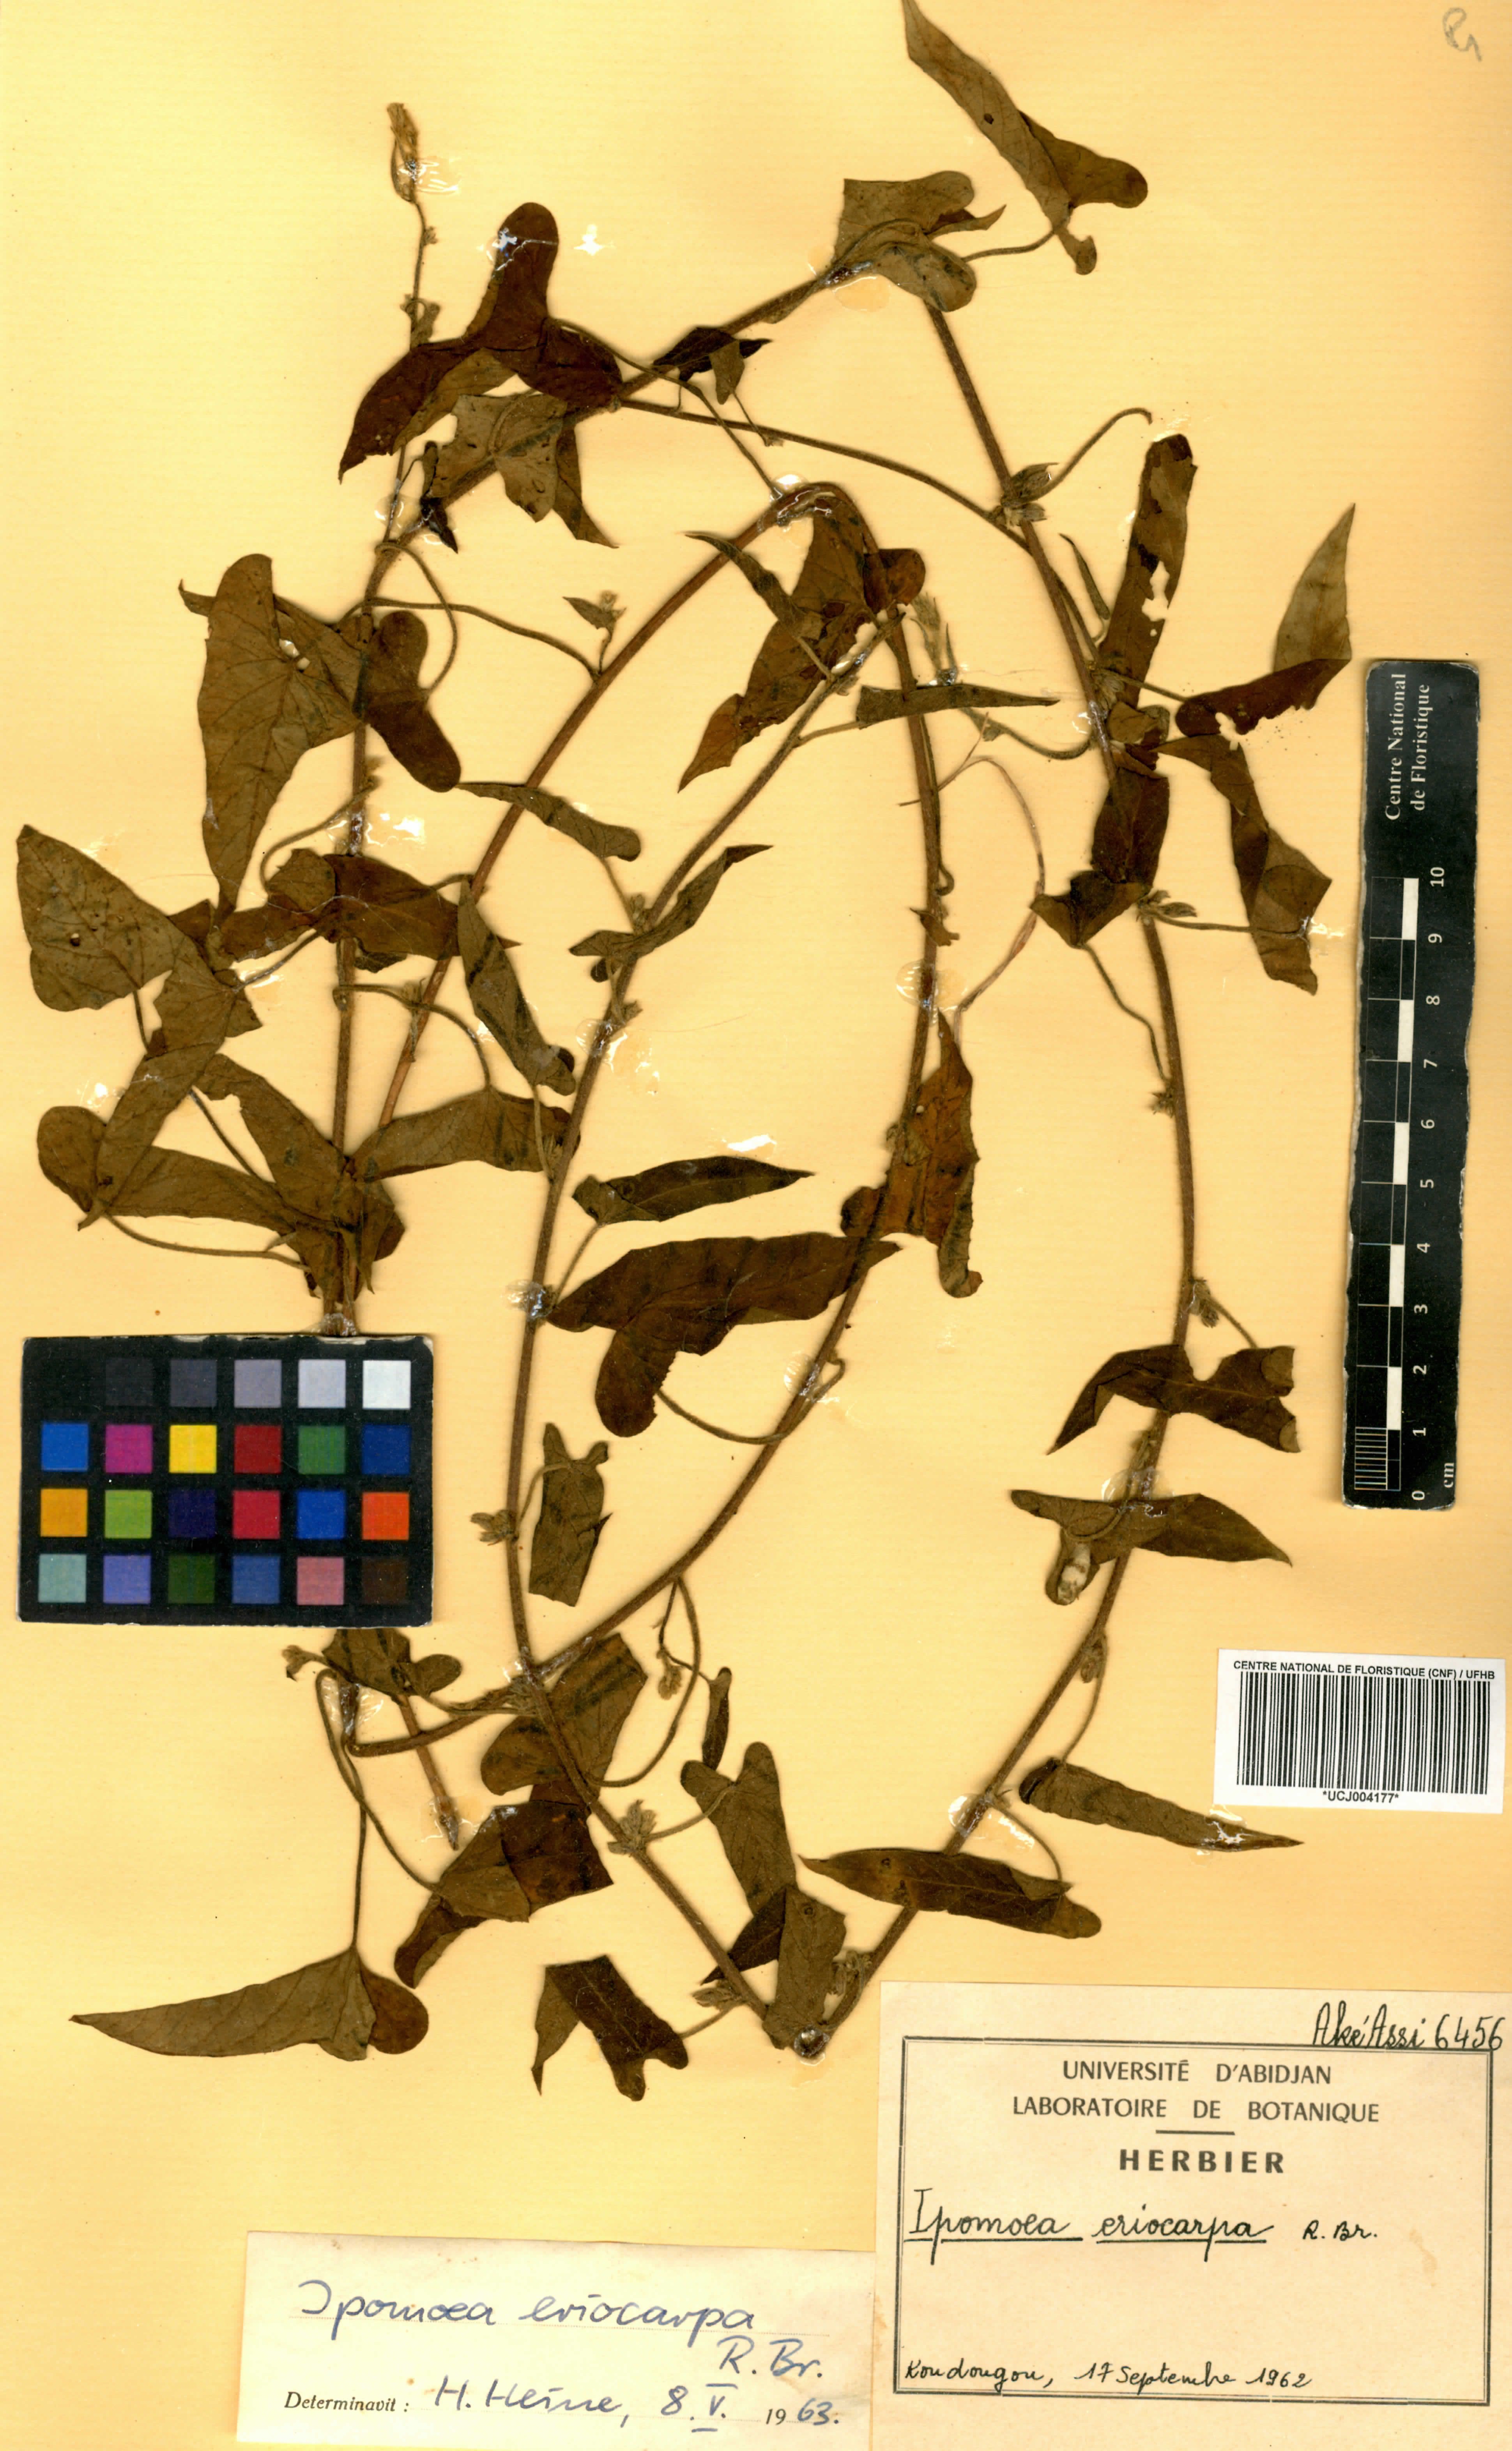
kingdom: Plantae
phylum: Tracheophyta
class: Magnoliopsida
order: Solanales
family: Convolvulaceae
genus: Ipomoea
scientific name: Ipomoea eriocarpa
